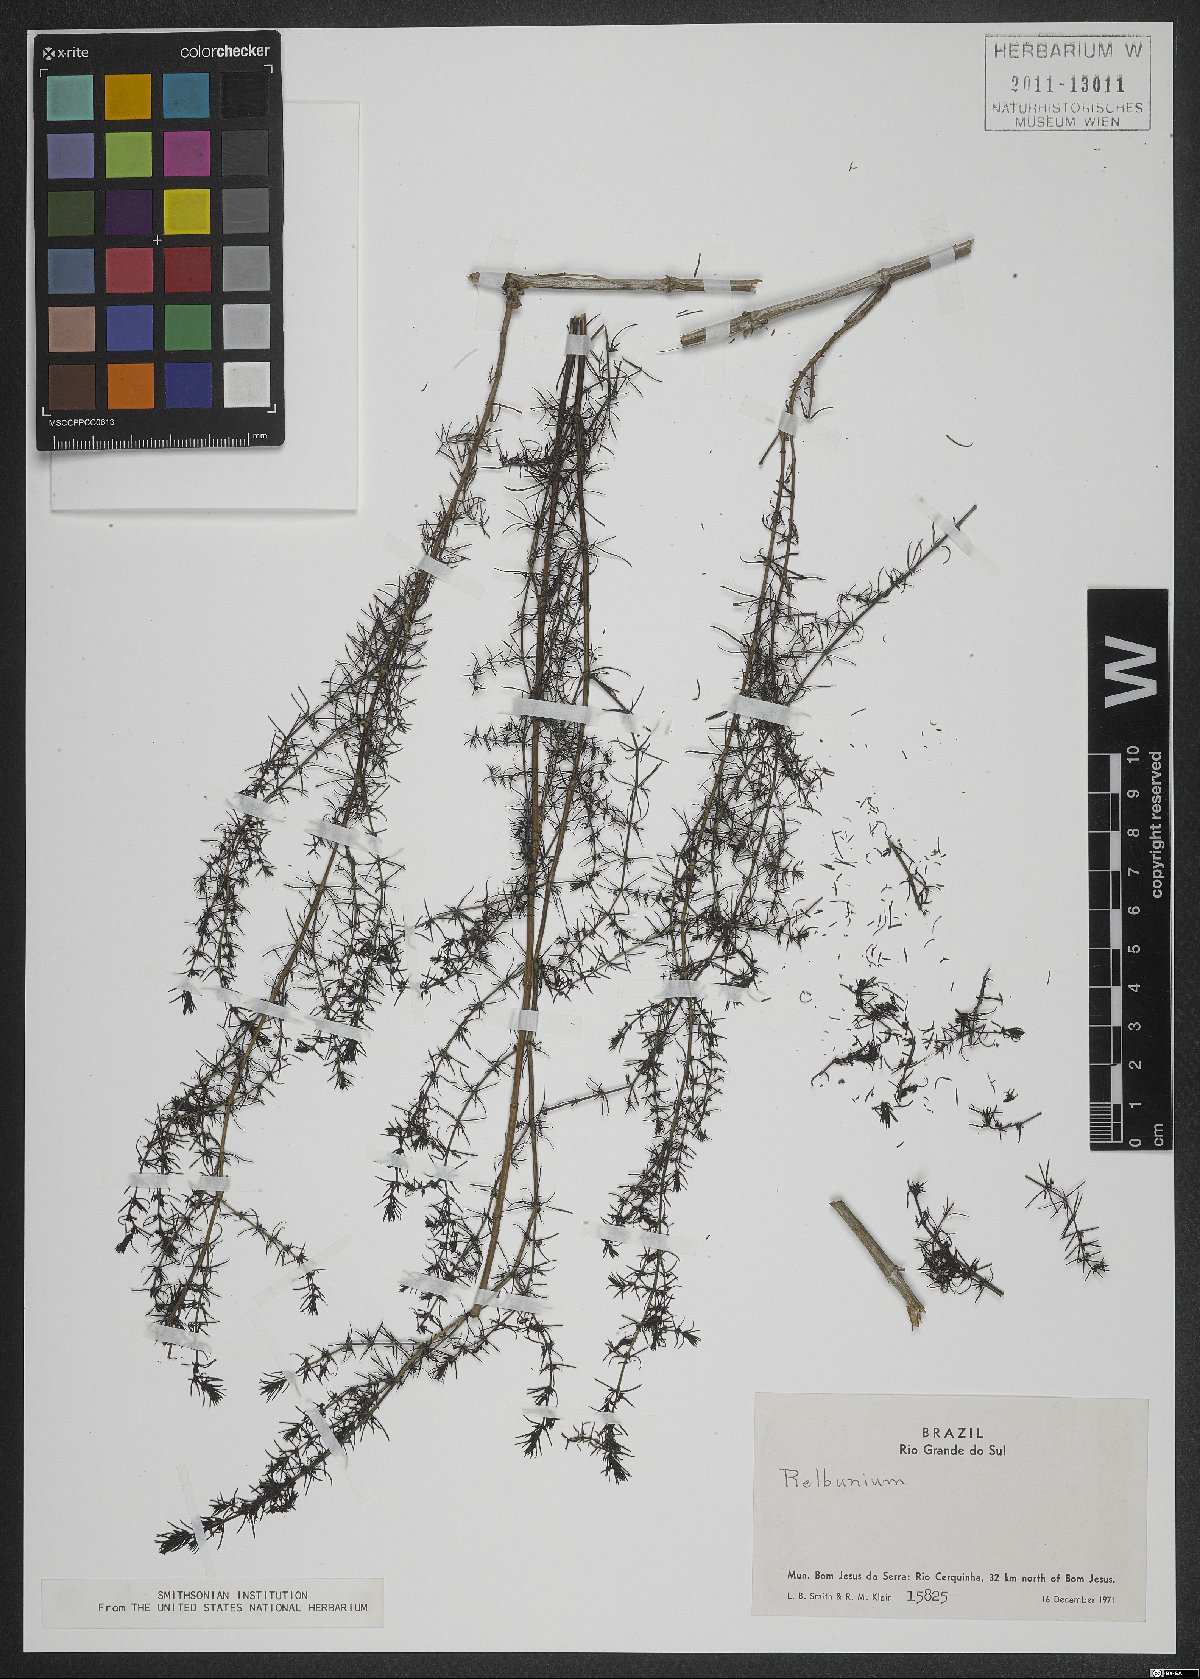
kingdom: Plantae
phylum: Tracheophyta
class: Magnoliopsida
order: Gentianales
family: Rubiaceae
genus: Galium
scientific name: Galium
